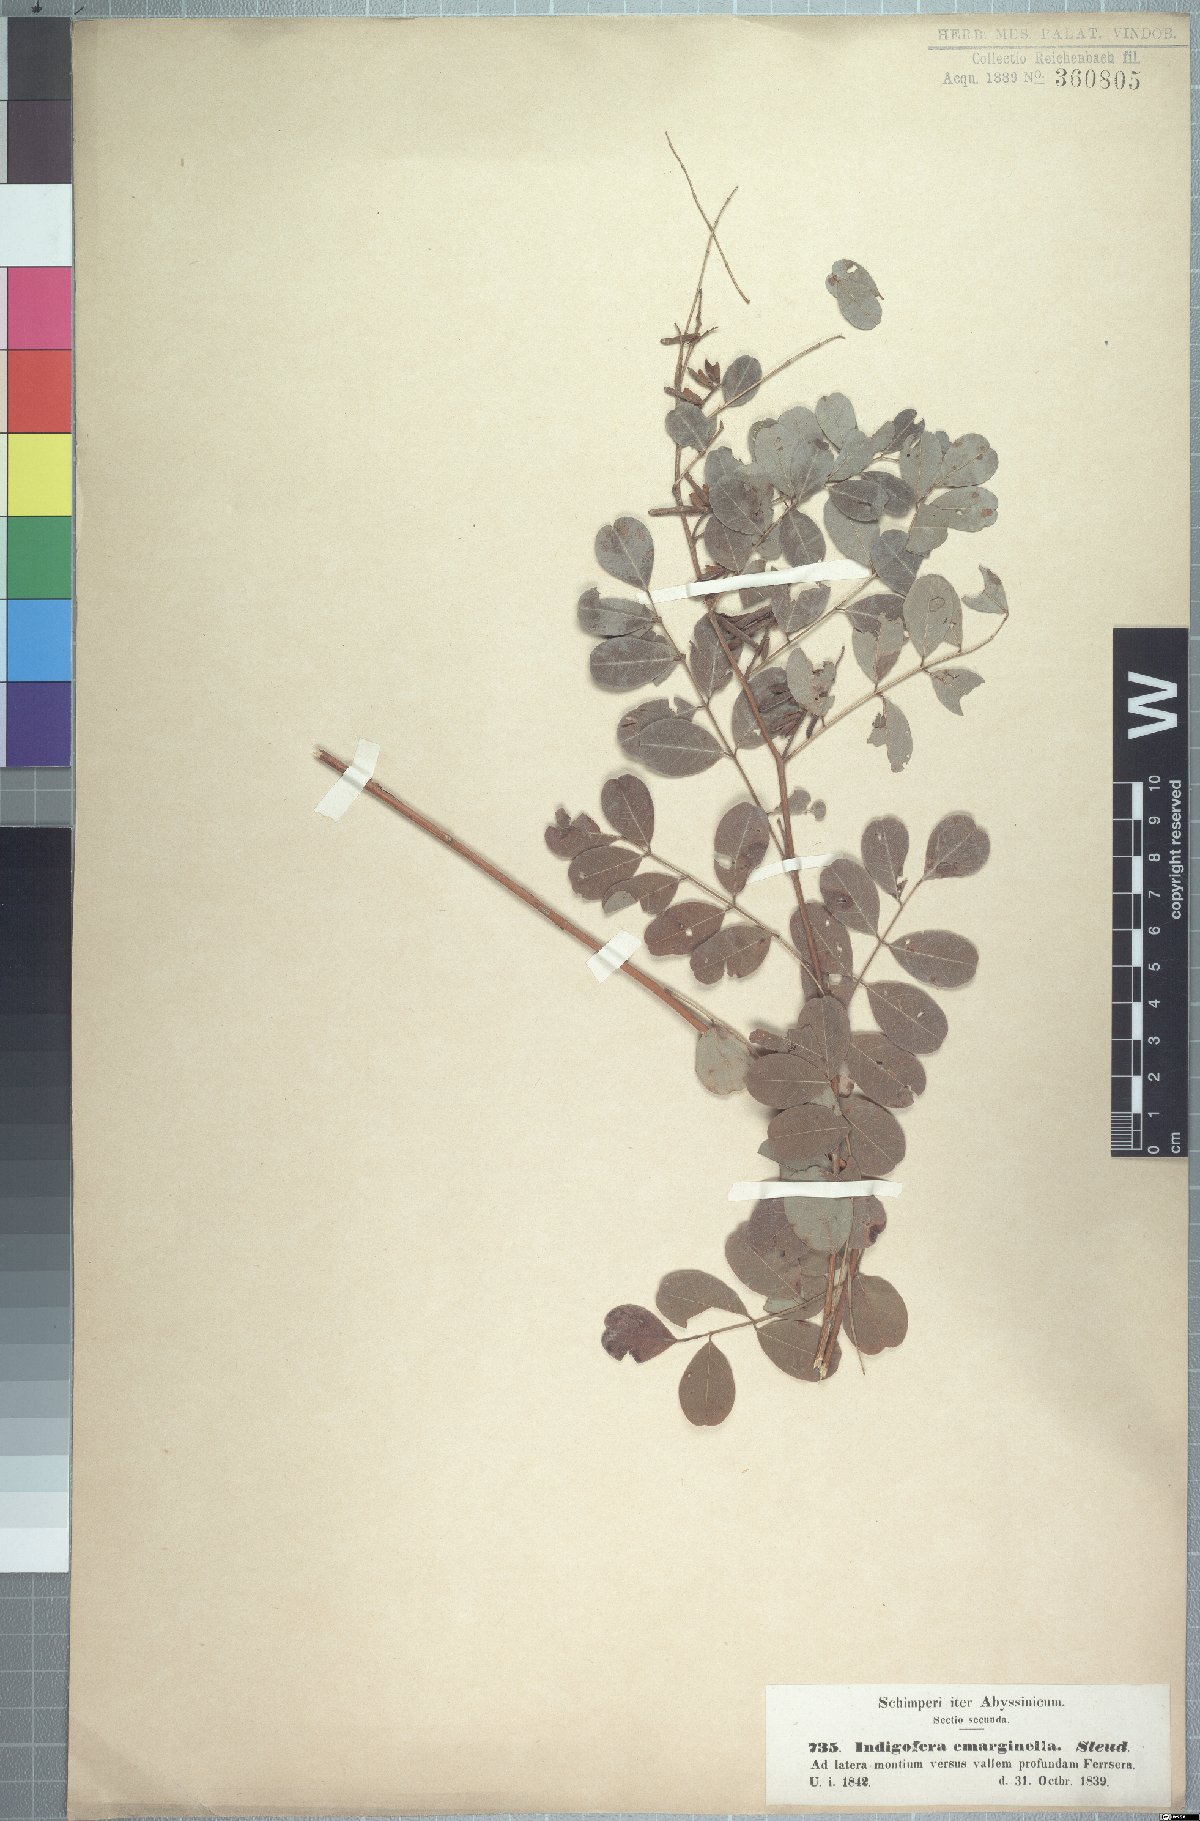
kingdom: Plantae
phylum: Tracheophyta
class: Magnoliopsida
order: Fabales
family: Fabaceae
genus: Indigofera
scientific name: Indigofera emarginella
